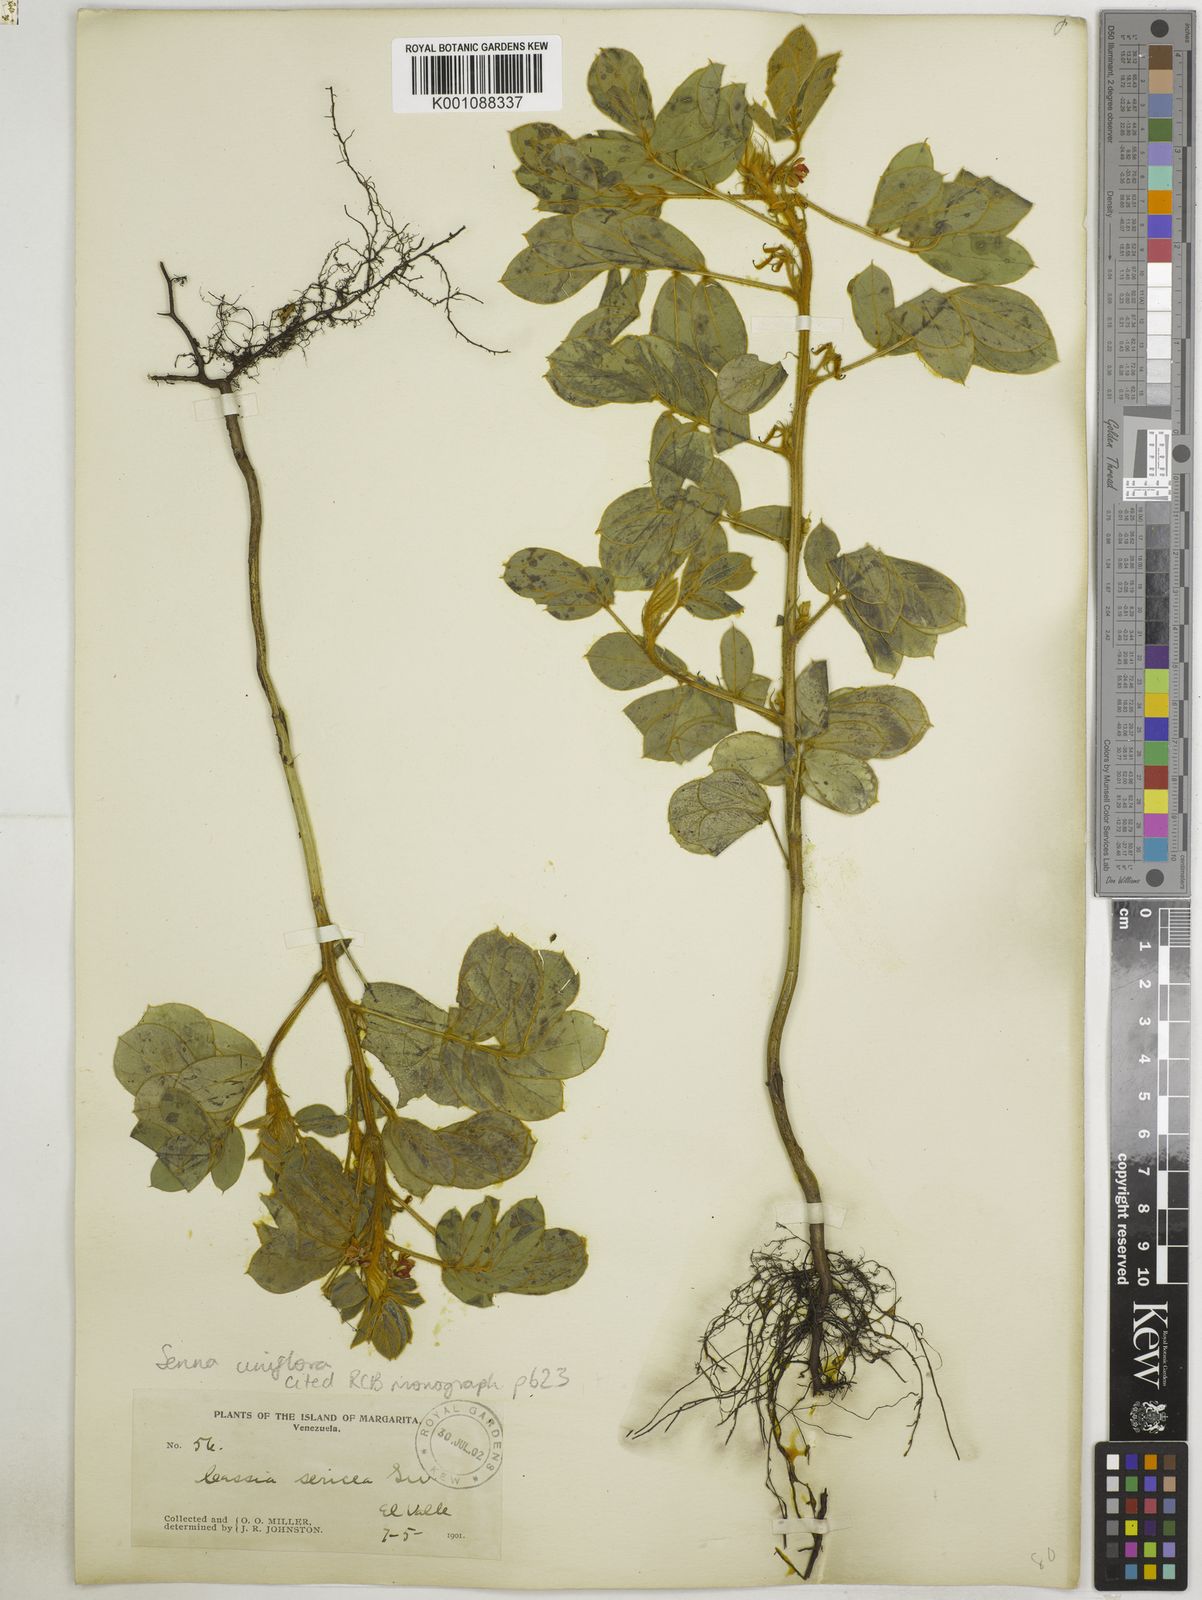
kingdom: Plantae
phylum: Tracheophyta
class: Magnoliopsida
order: Fabales
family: Fabaceae
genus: Senna
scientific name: Senna uniflora
